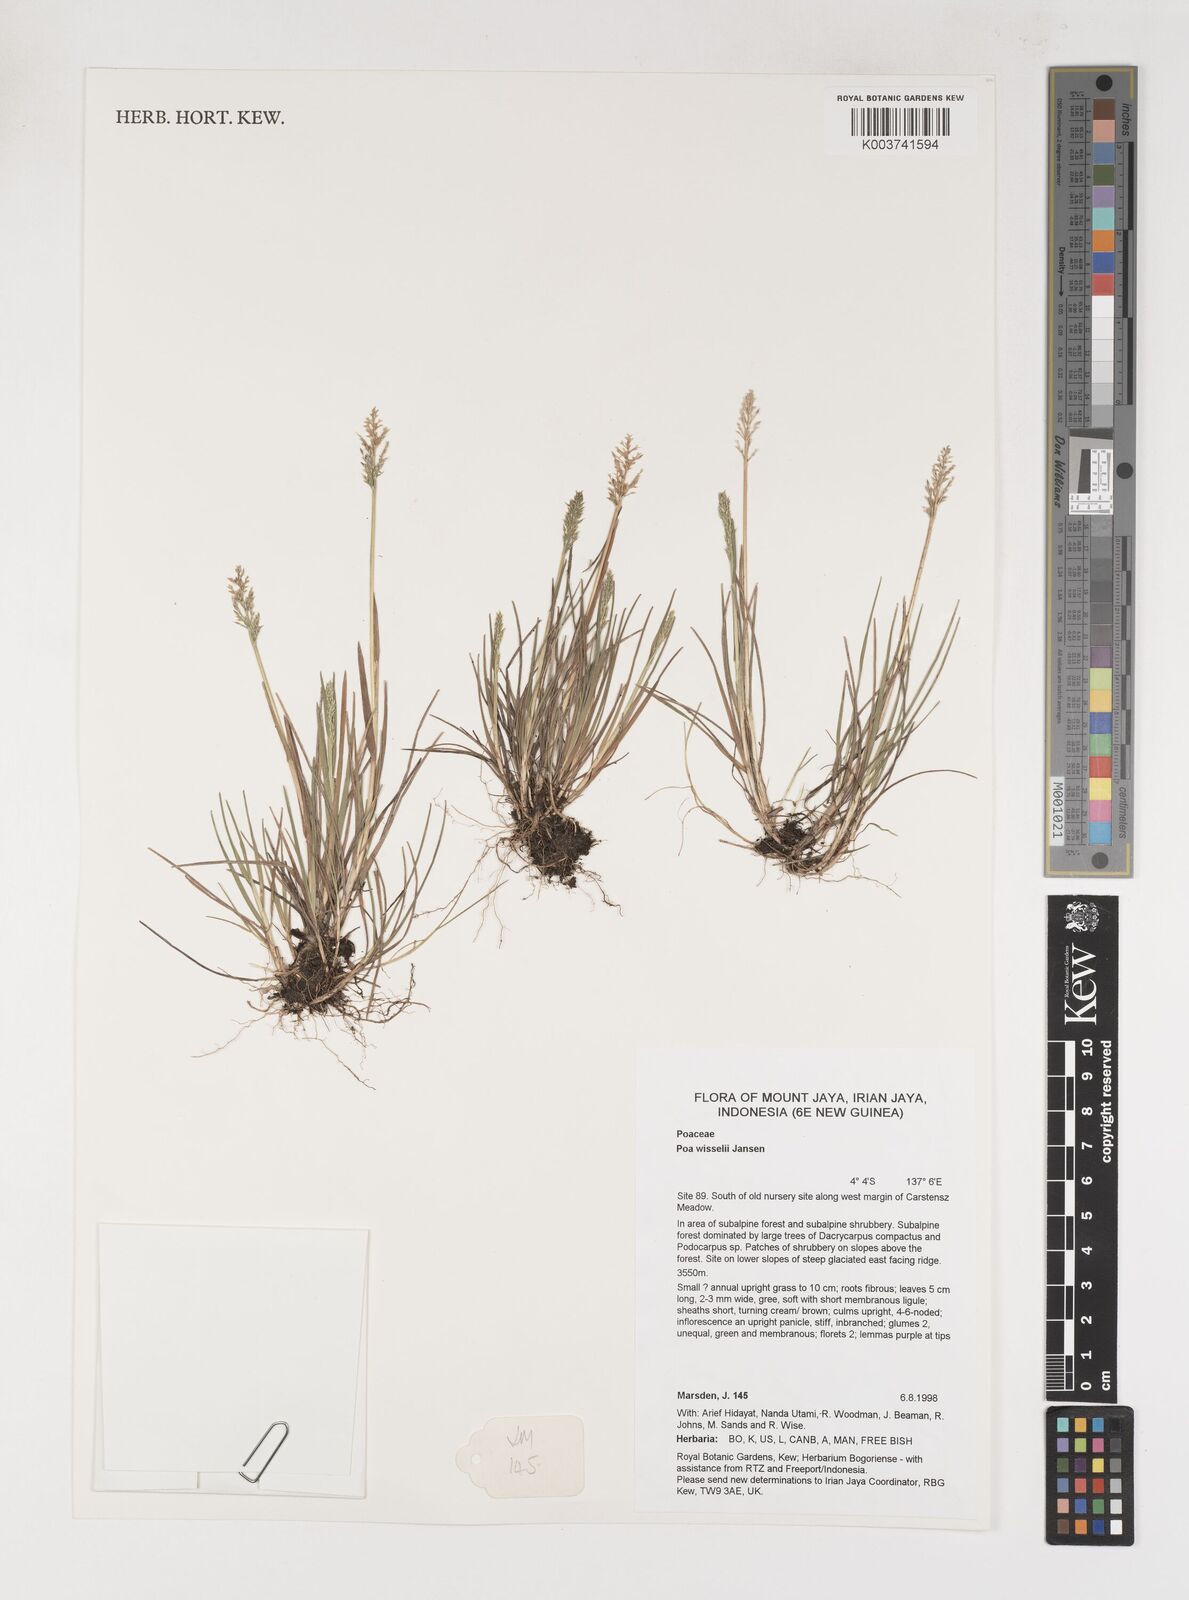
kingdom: Plantae
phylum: Tracheophyta
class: Liliopsida
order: Poales
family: Poaceae
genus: Poa
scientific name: Poa wisselii
